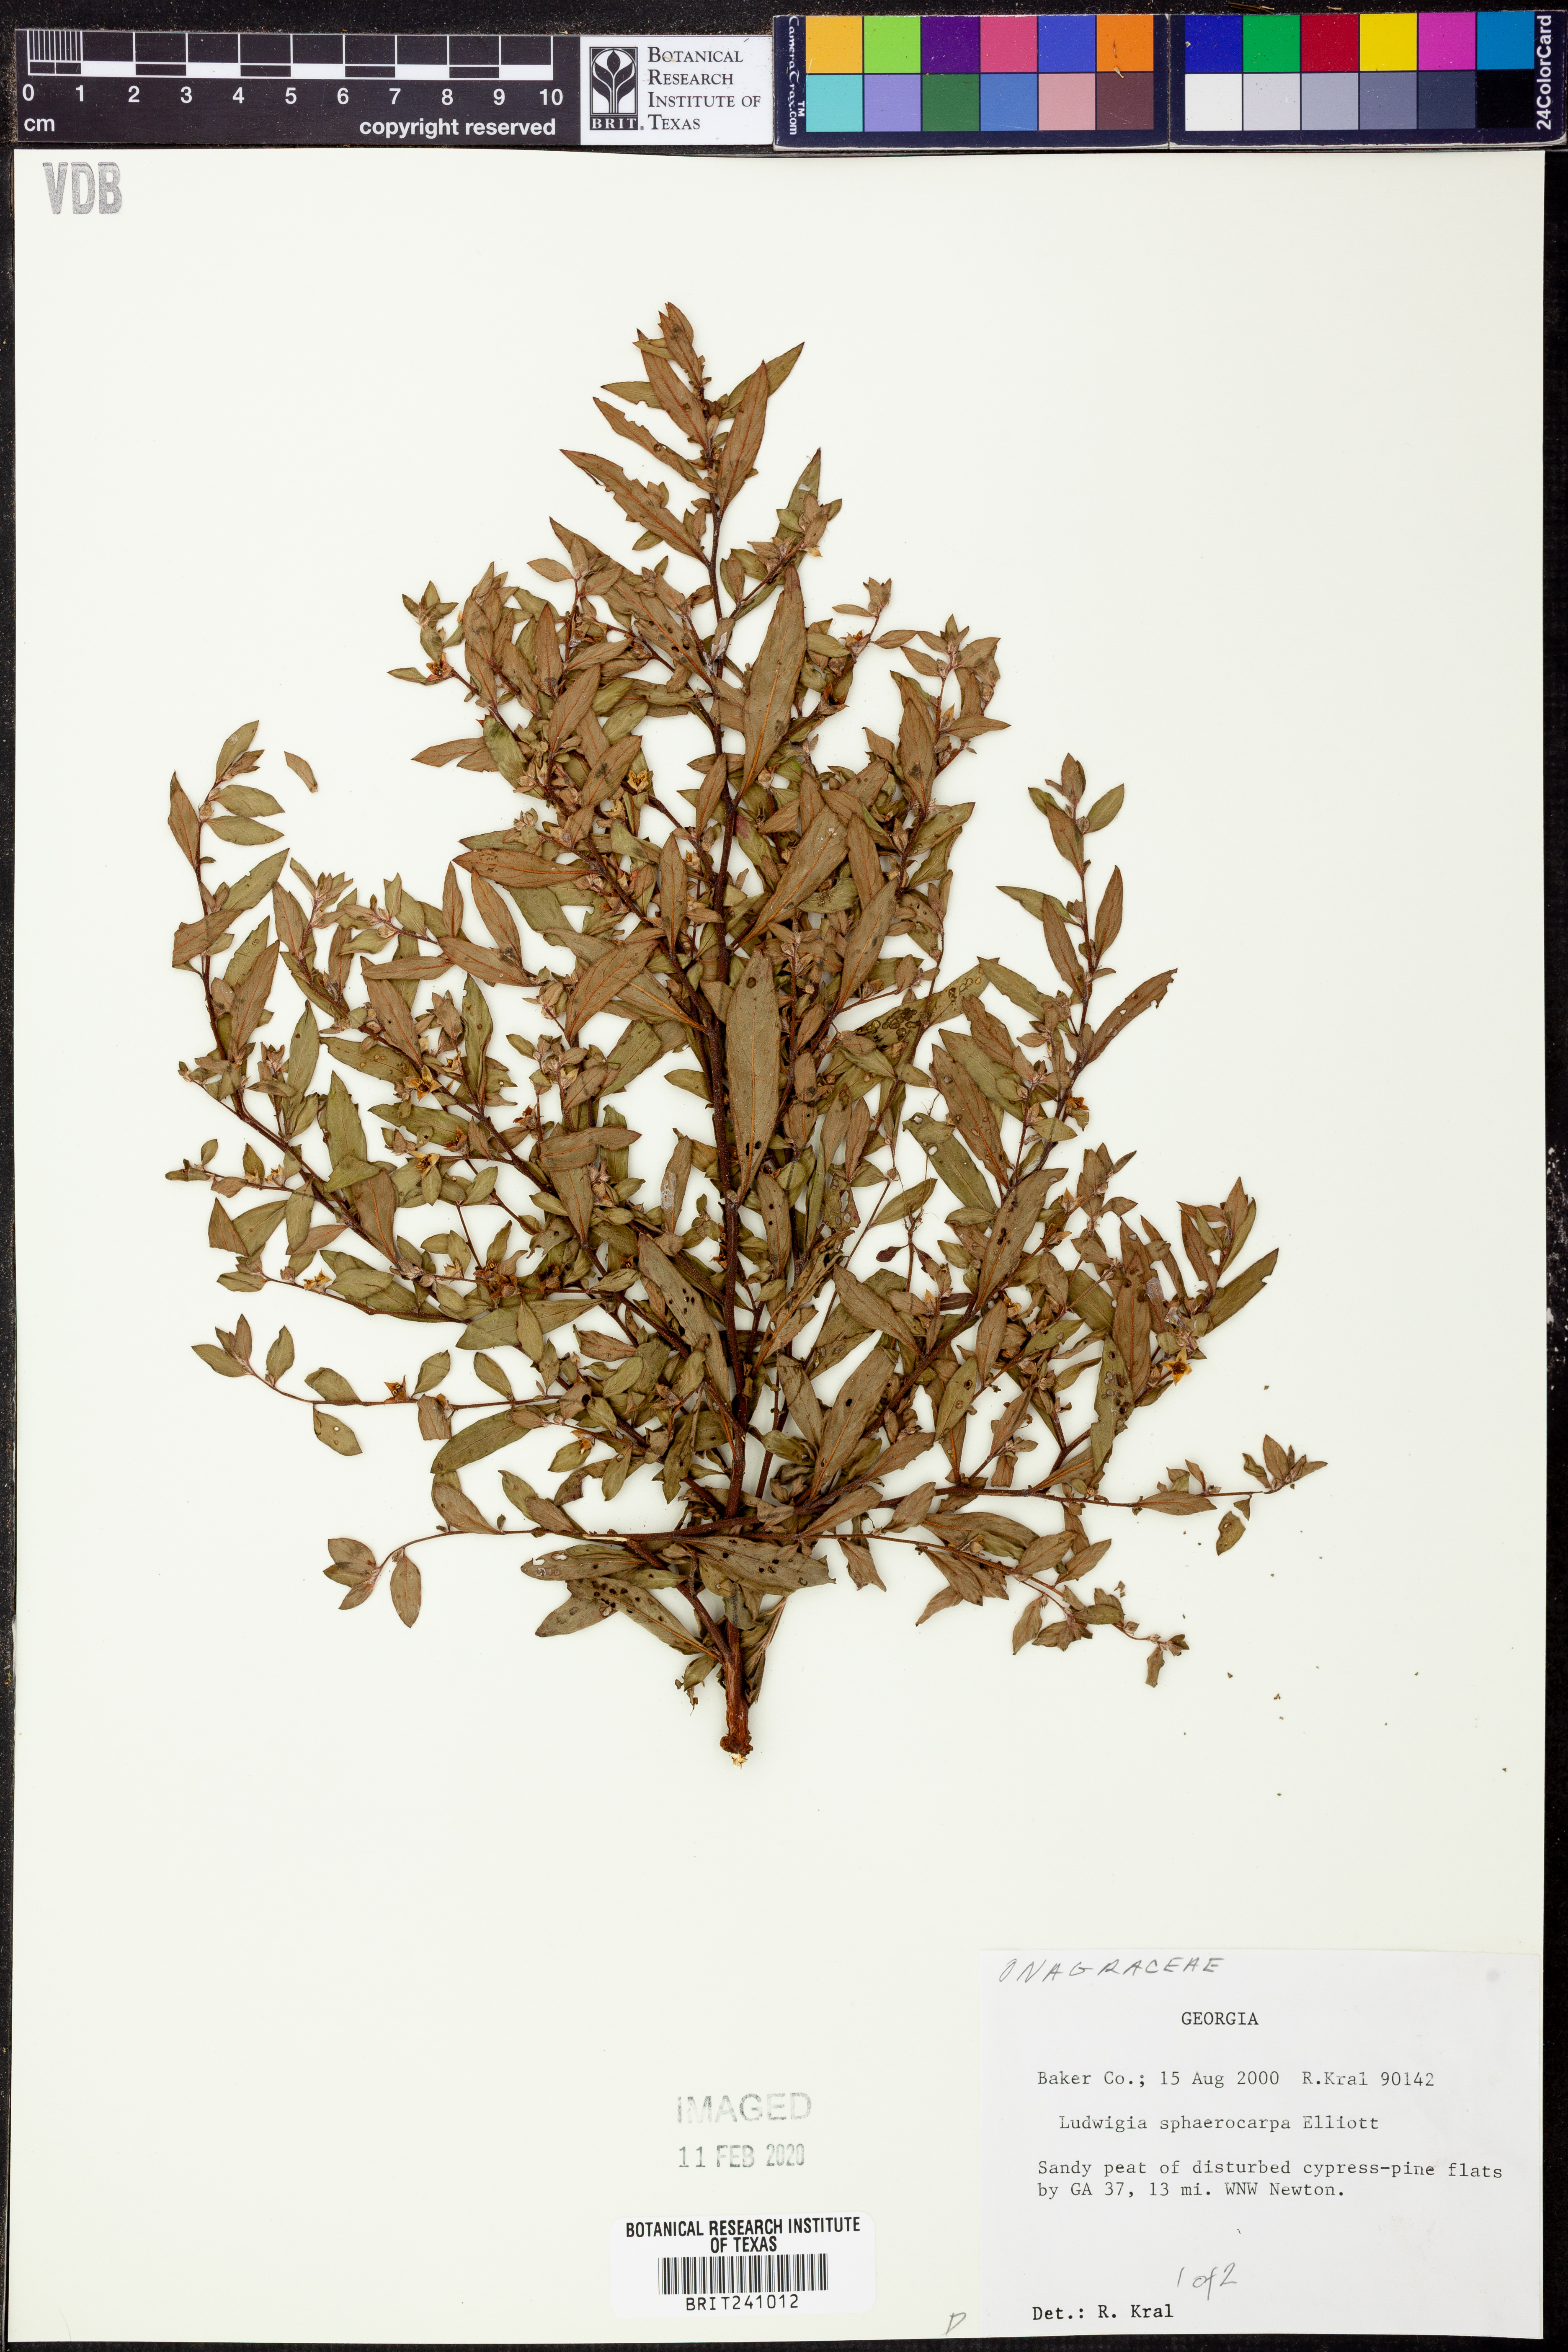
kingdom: Plantae
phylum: Tracheophyta
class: Magnoliopsida
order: Myrtales
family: Onagraceae
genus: Ludwigia
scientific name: Ludwigia sphaerocarpa
